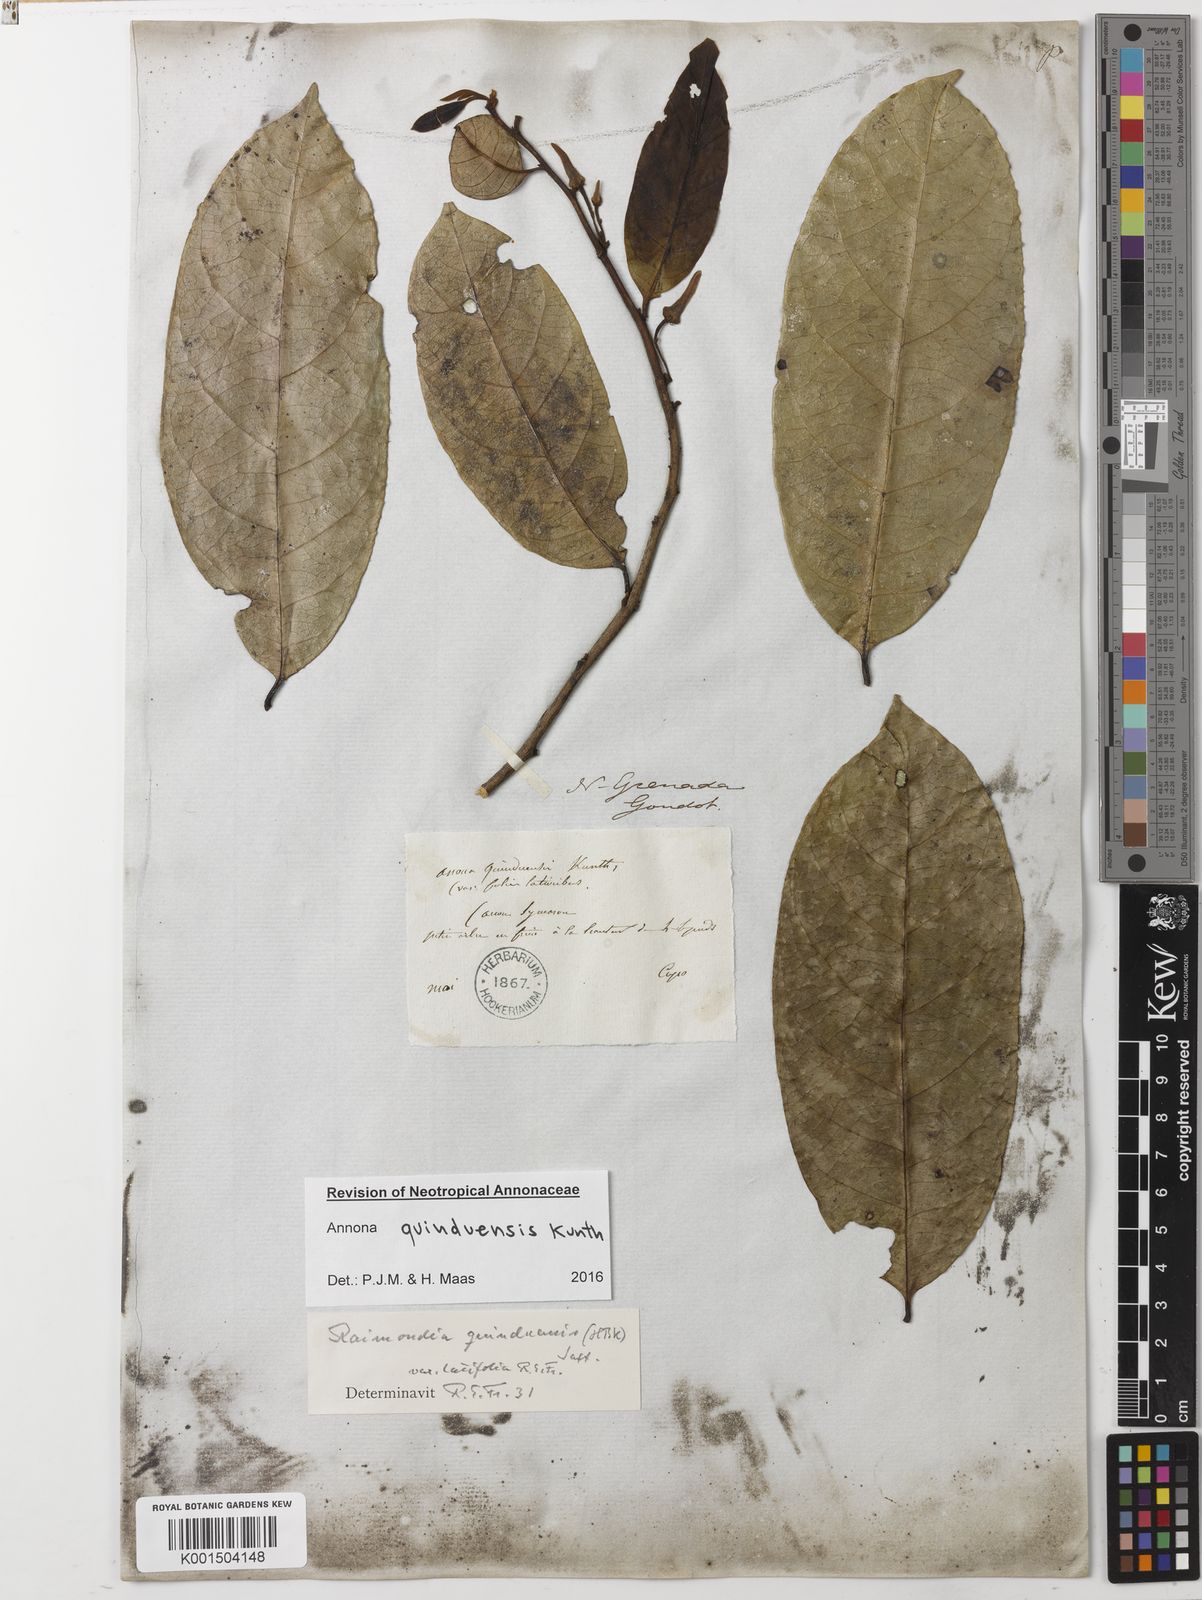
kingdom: Plantae
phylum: Tracheophyta
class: Magnoliopsida
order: Magnoliales
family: Annonaceae
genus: Annona
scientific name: Annona quinduensis
